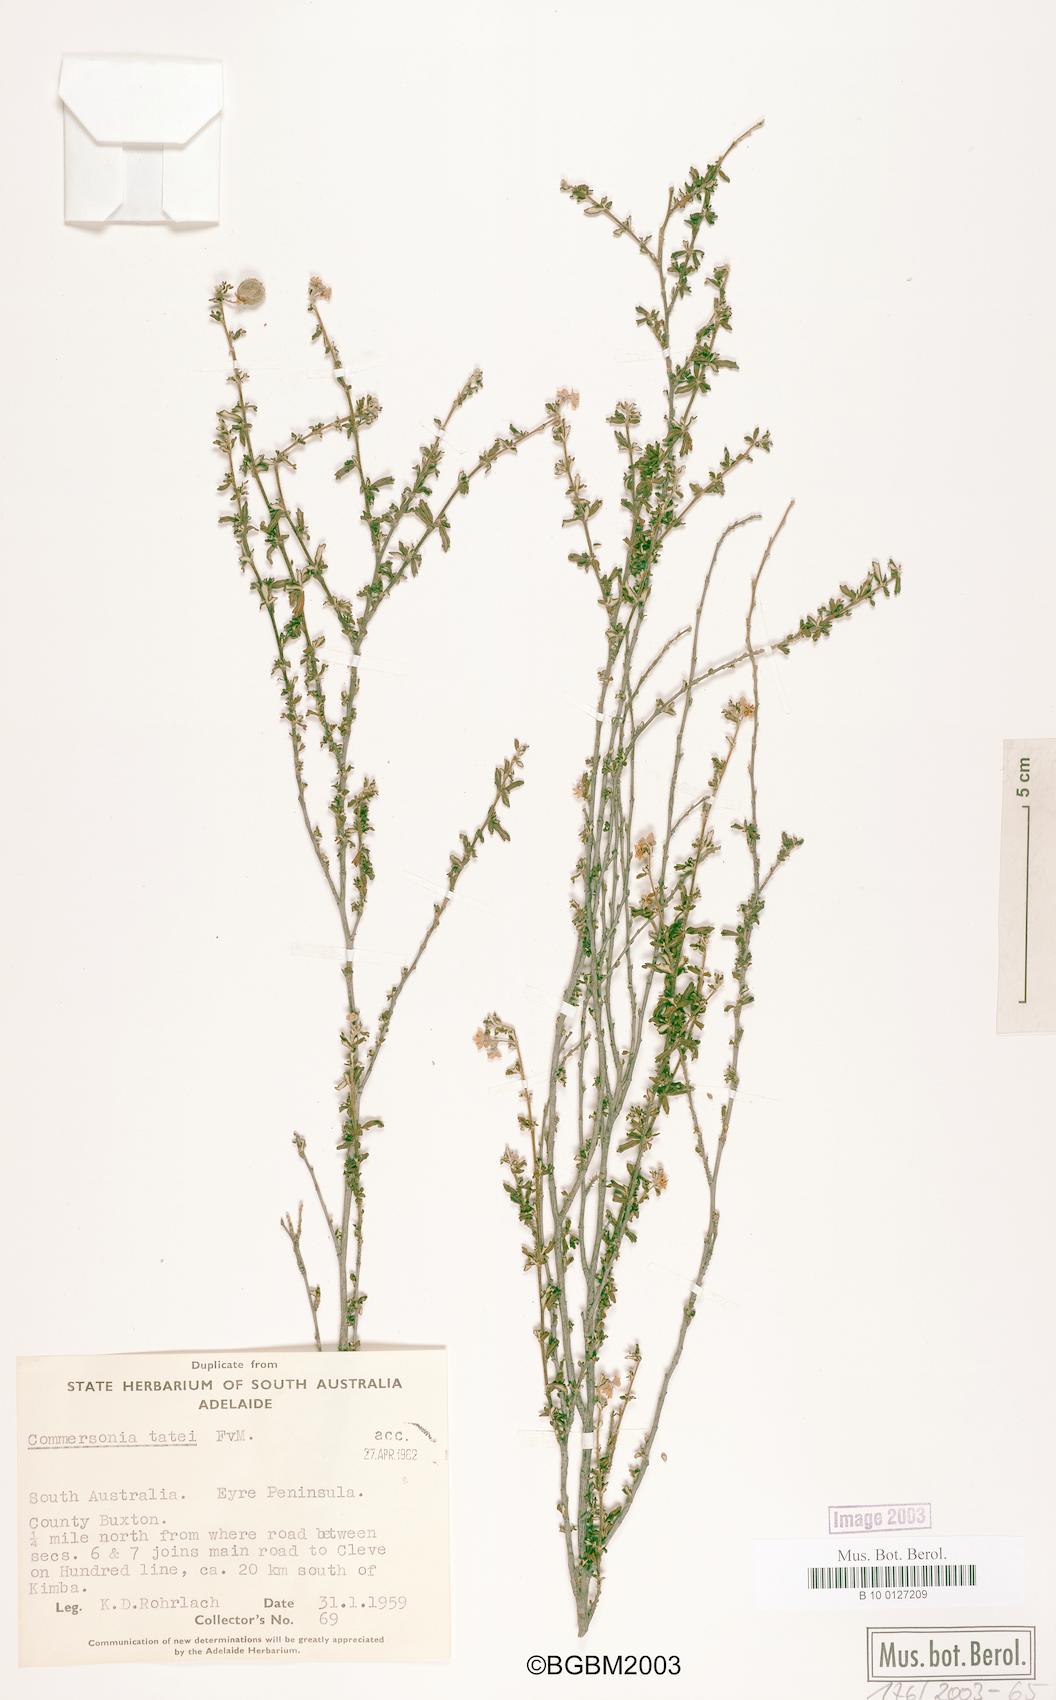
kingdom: Plantae
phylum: Tracheophyta
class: Magnoliopsida
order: Malvales
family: Malvaceae
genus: Androcalva
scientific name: Androcalva tatei
